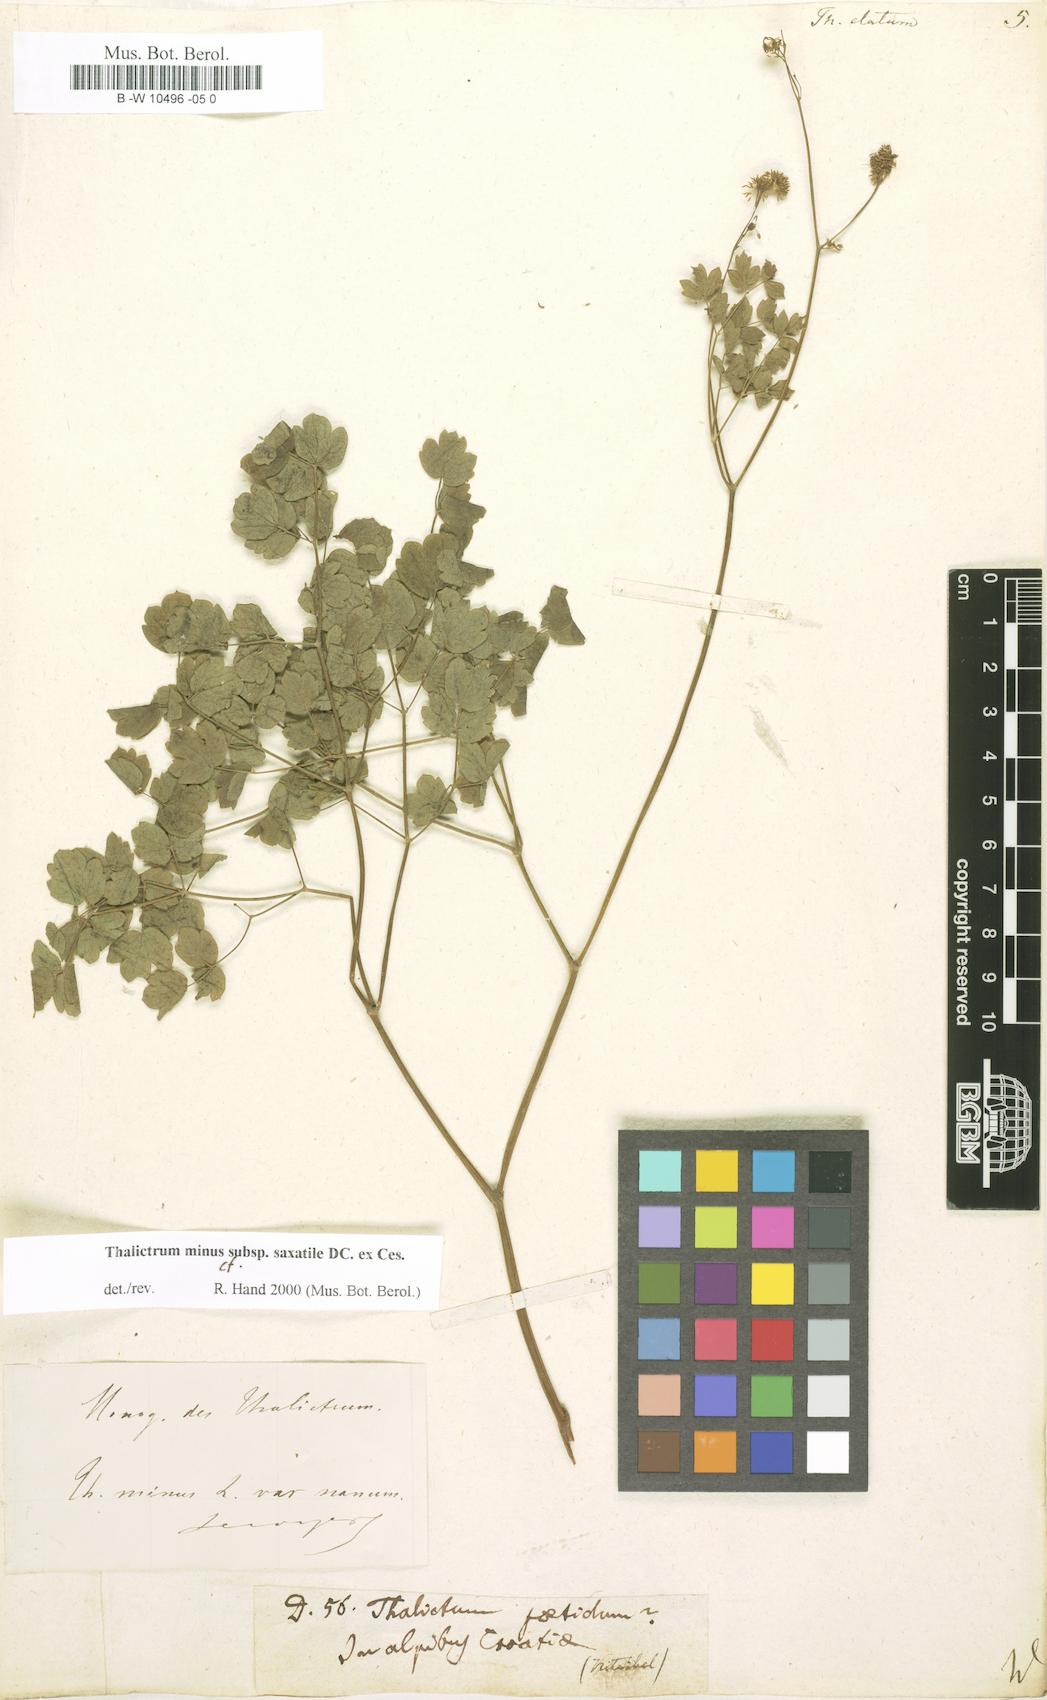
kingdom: Plantae
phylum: Tracheophyta
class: Magnoliopsida
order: Ranunculales
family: Ranunculaceae
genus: Thalictrum
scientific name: Thalictrum minus
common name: Lesser meadow-rue
